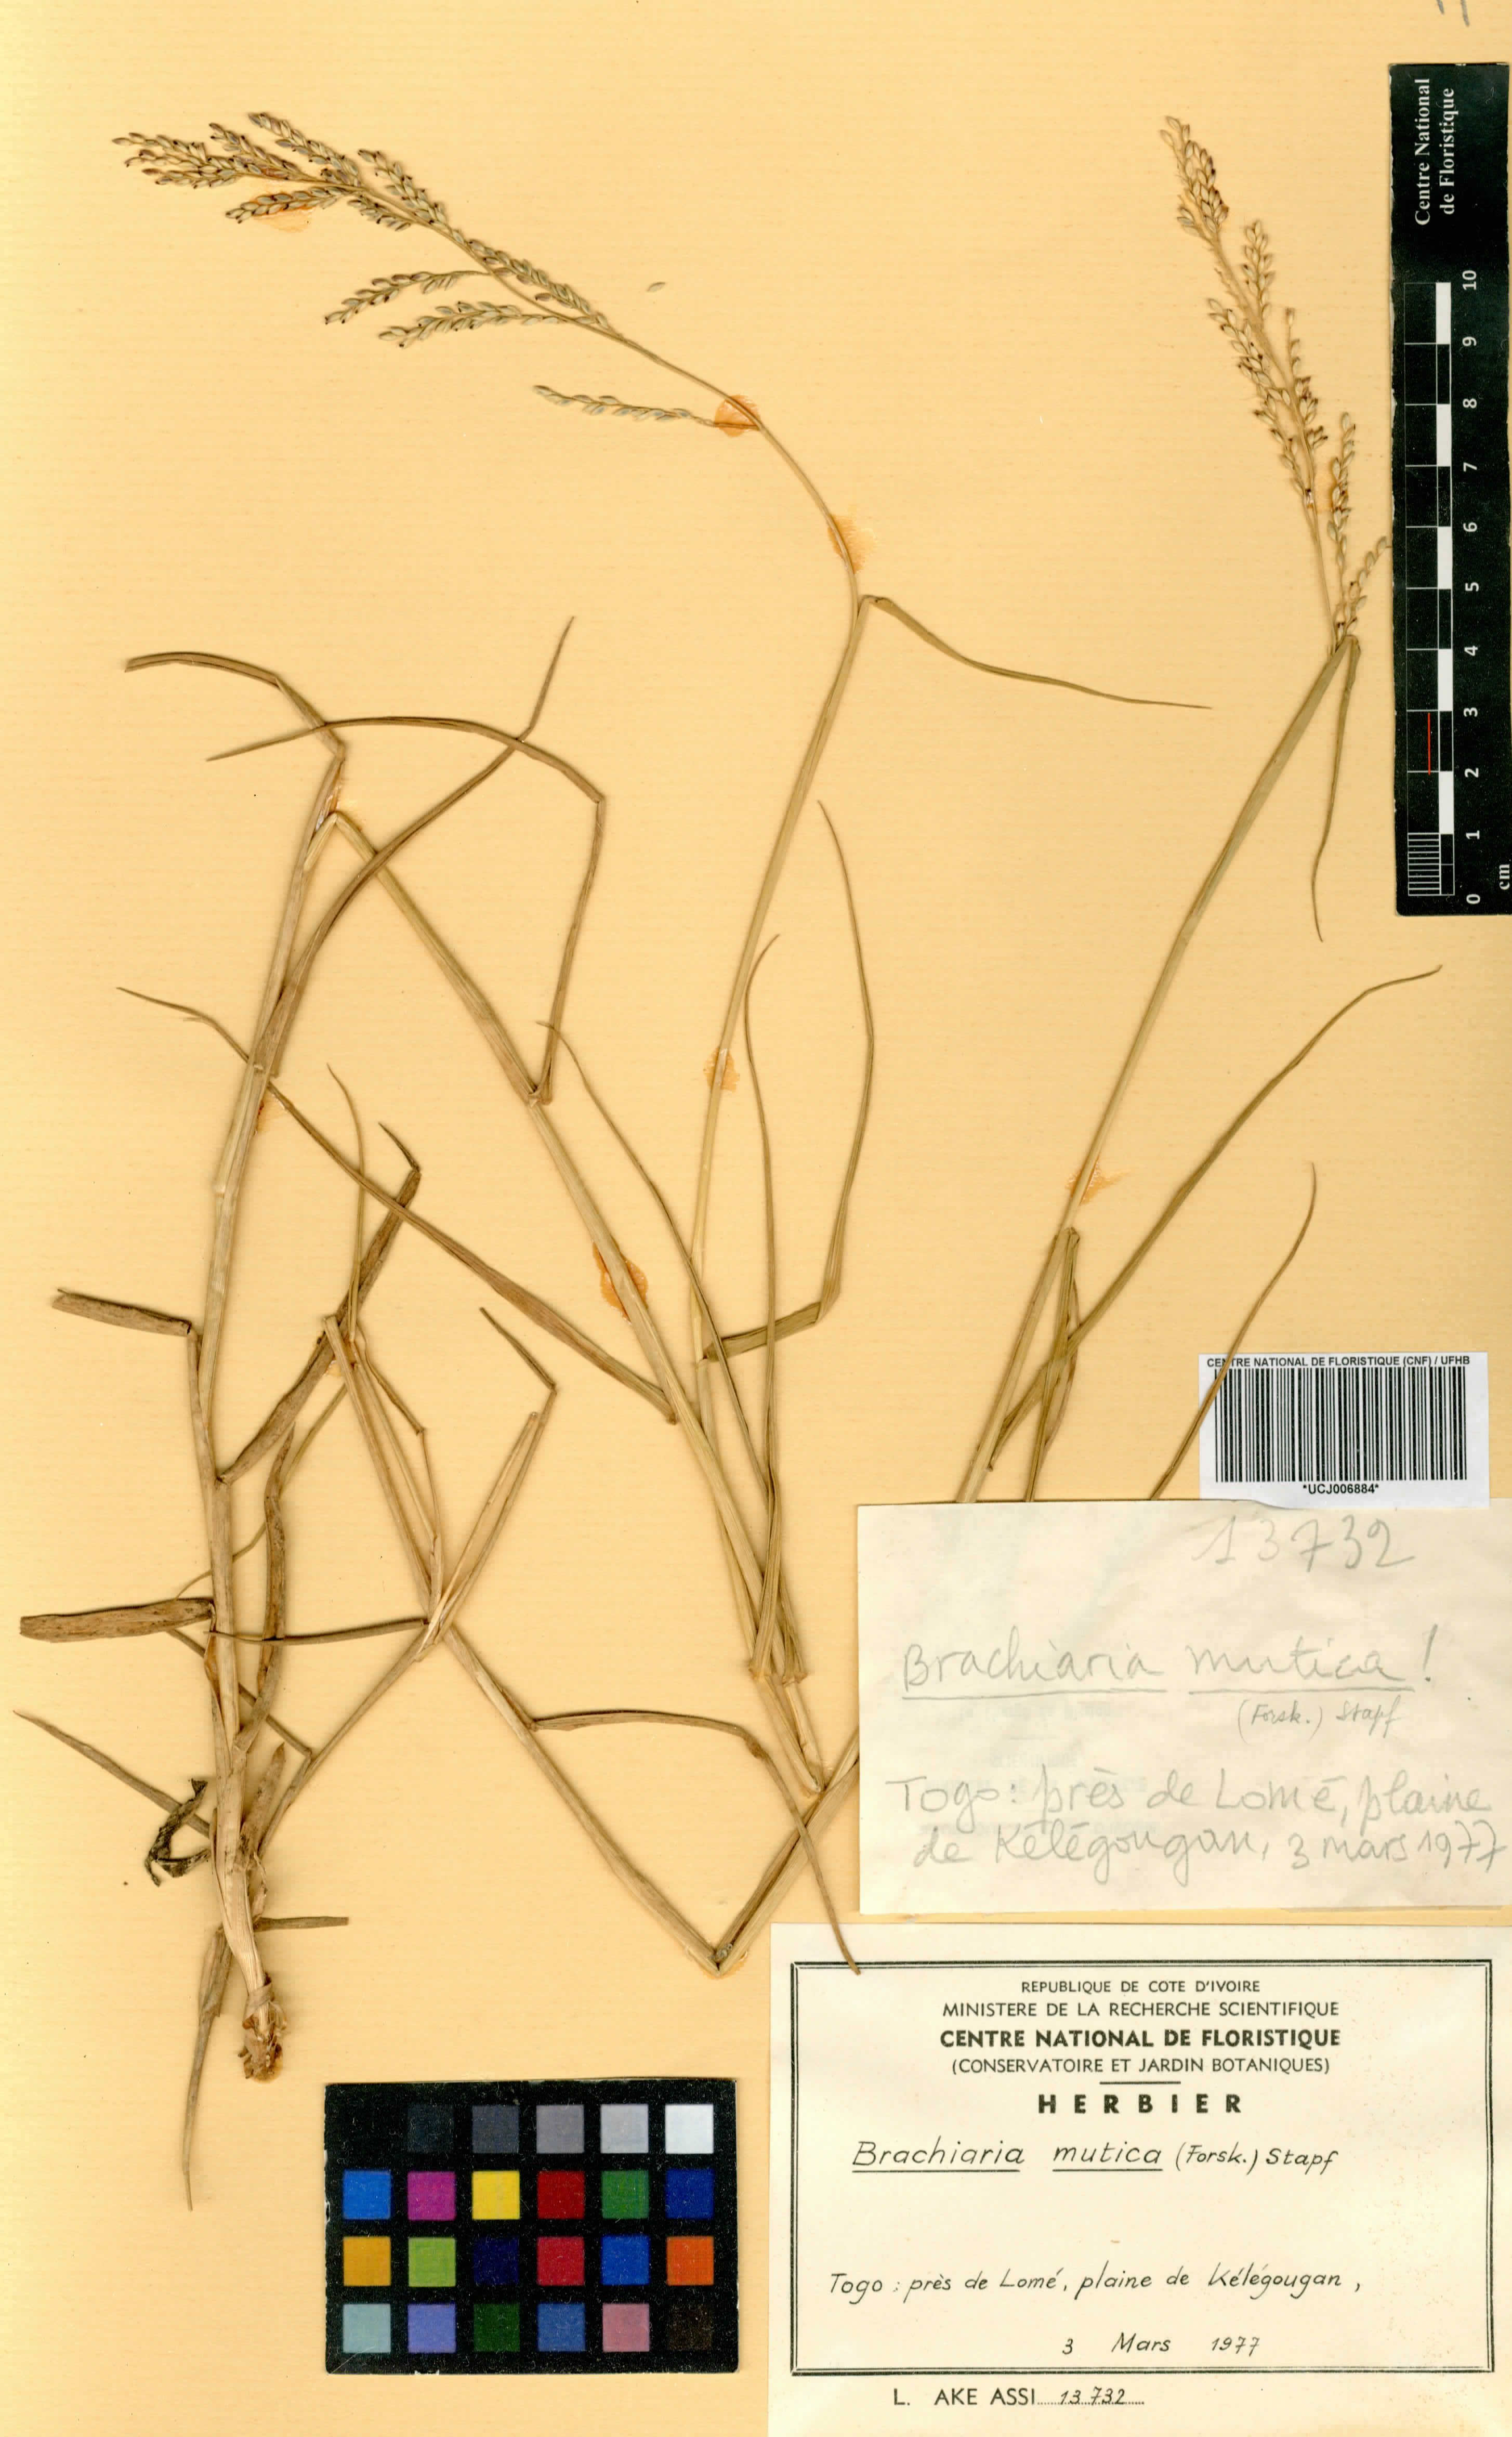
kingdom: Plantae
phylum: Tracheophyta
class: Liliopsida
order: Poales
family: Poaceae
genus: Urochloa
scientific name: Urochloa mutica
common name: Para grass
